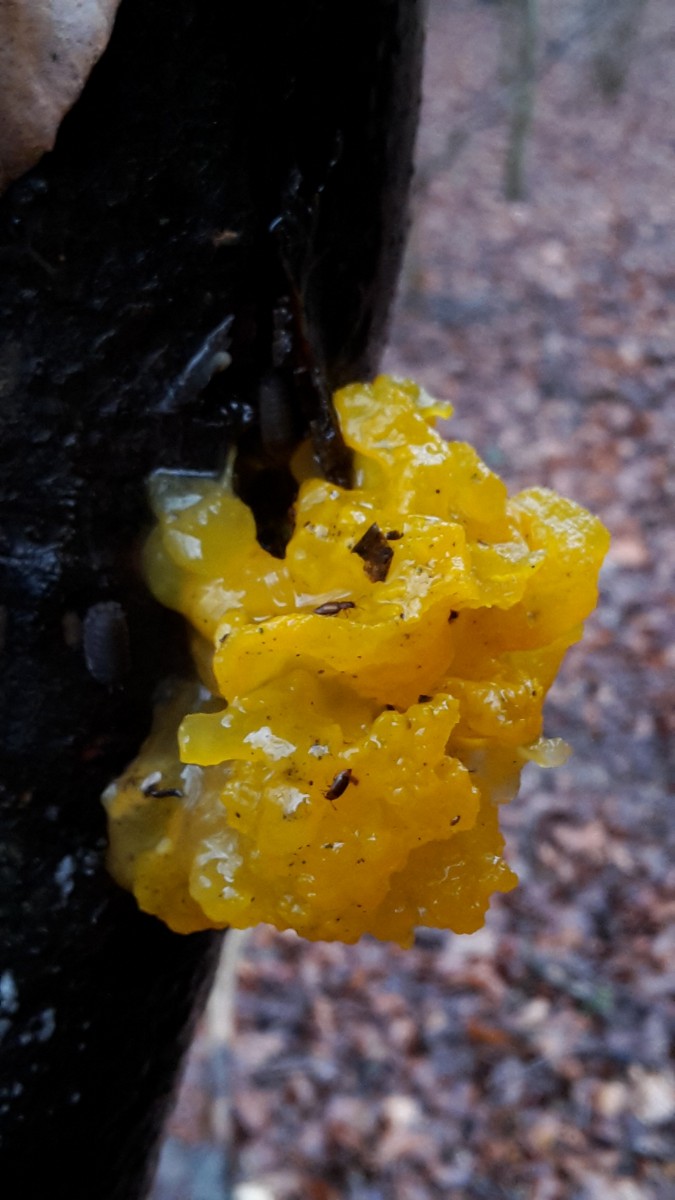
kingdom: Fungi
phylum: Basidiomycota
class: Tremellomycetes
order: Tremellales
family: Tremellaceae
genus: Tremella
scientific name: Tremella mesenterica
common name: gul bævresvamp
